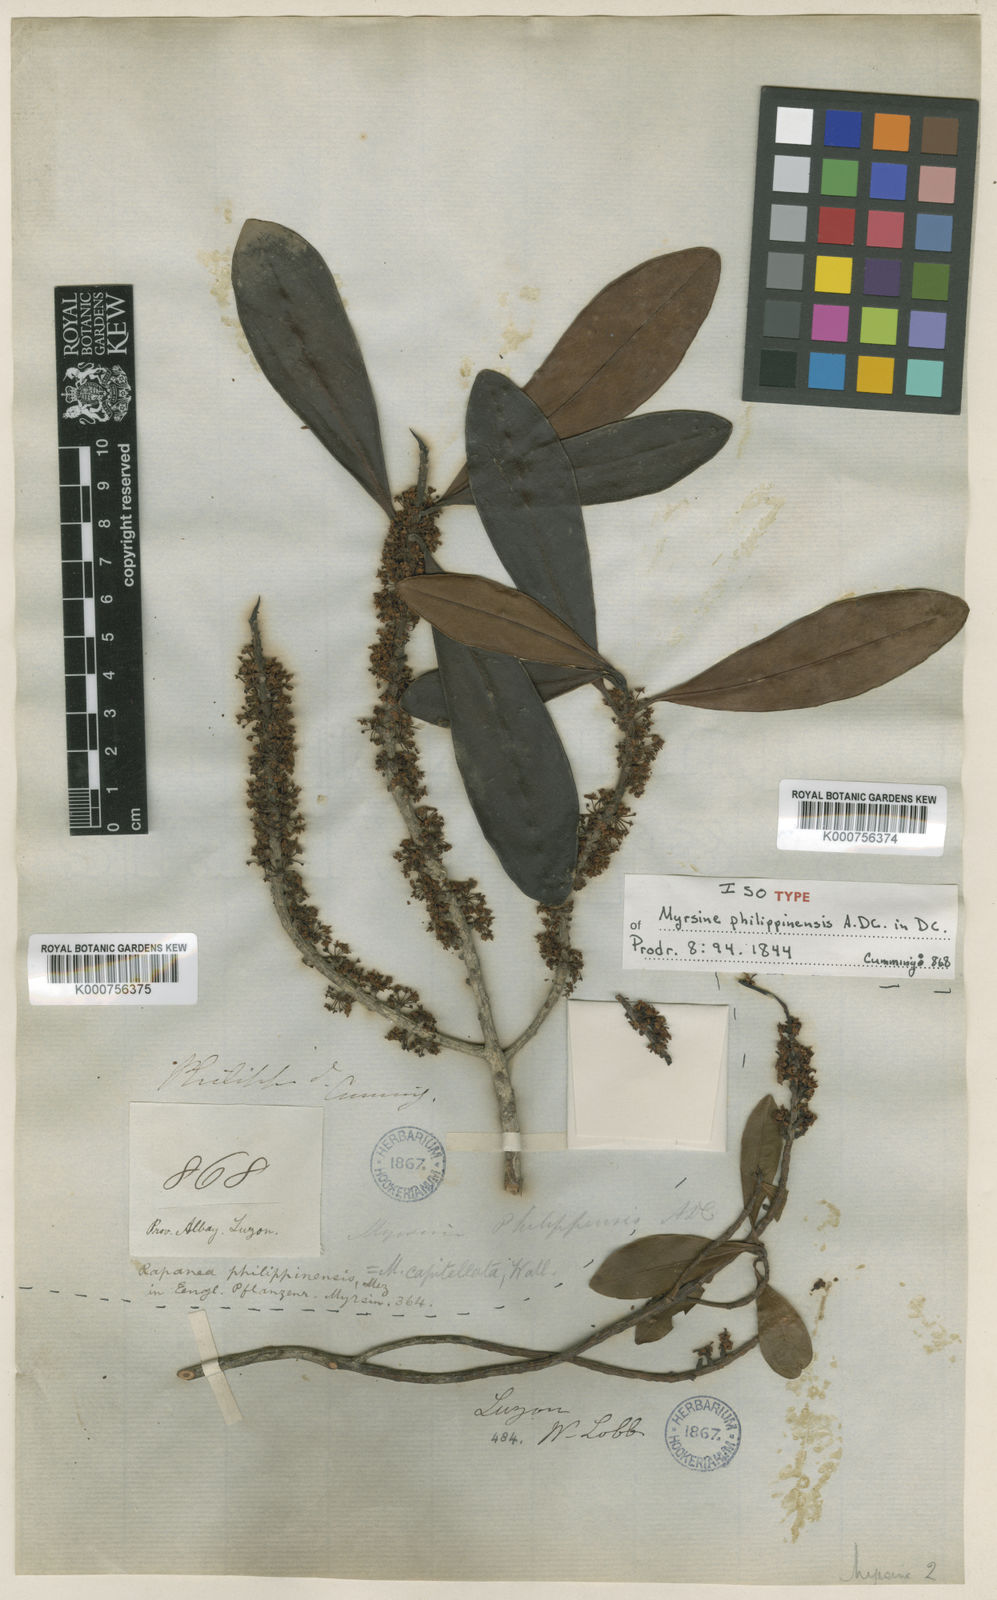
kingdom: Plantae
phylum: Tracheophyta
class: Magnoliopsida
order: Ericales
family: Primulaceae
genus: Myrsine
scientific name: Myrsine capitellata
